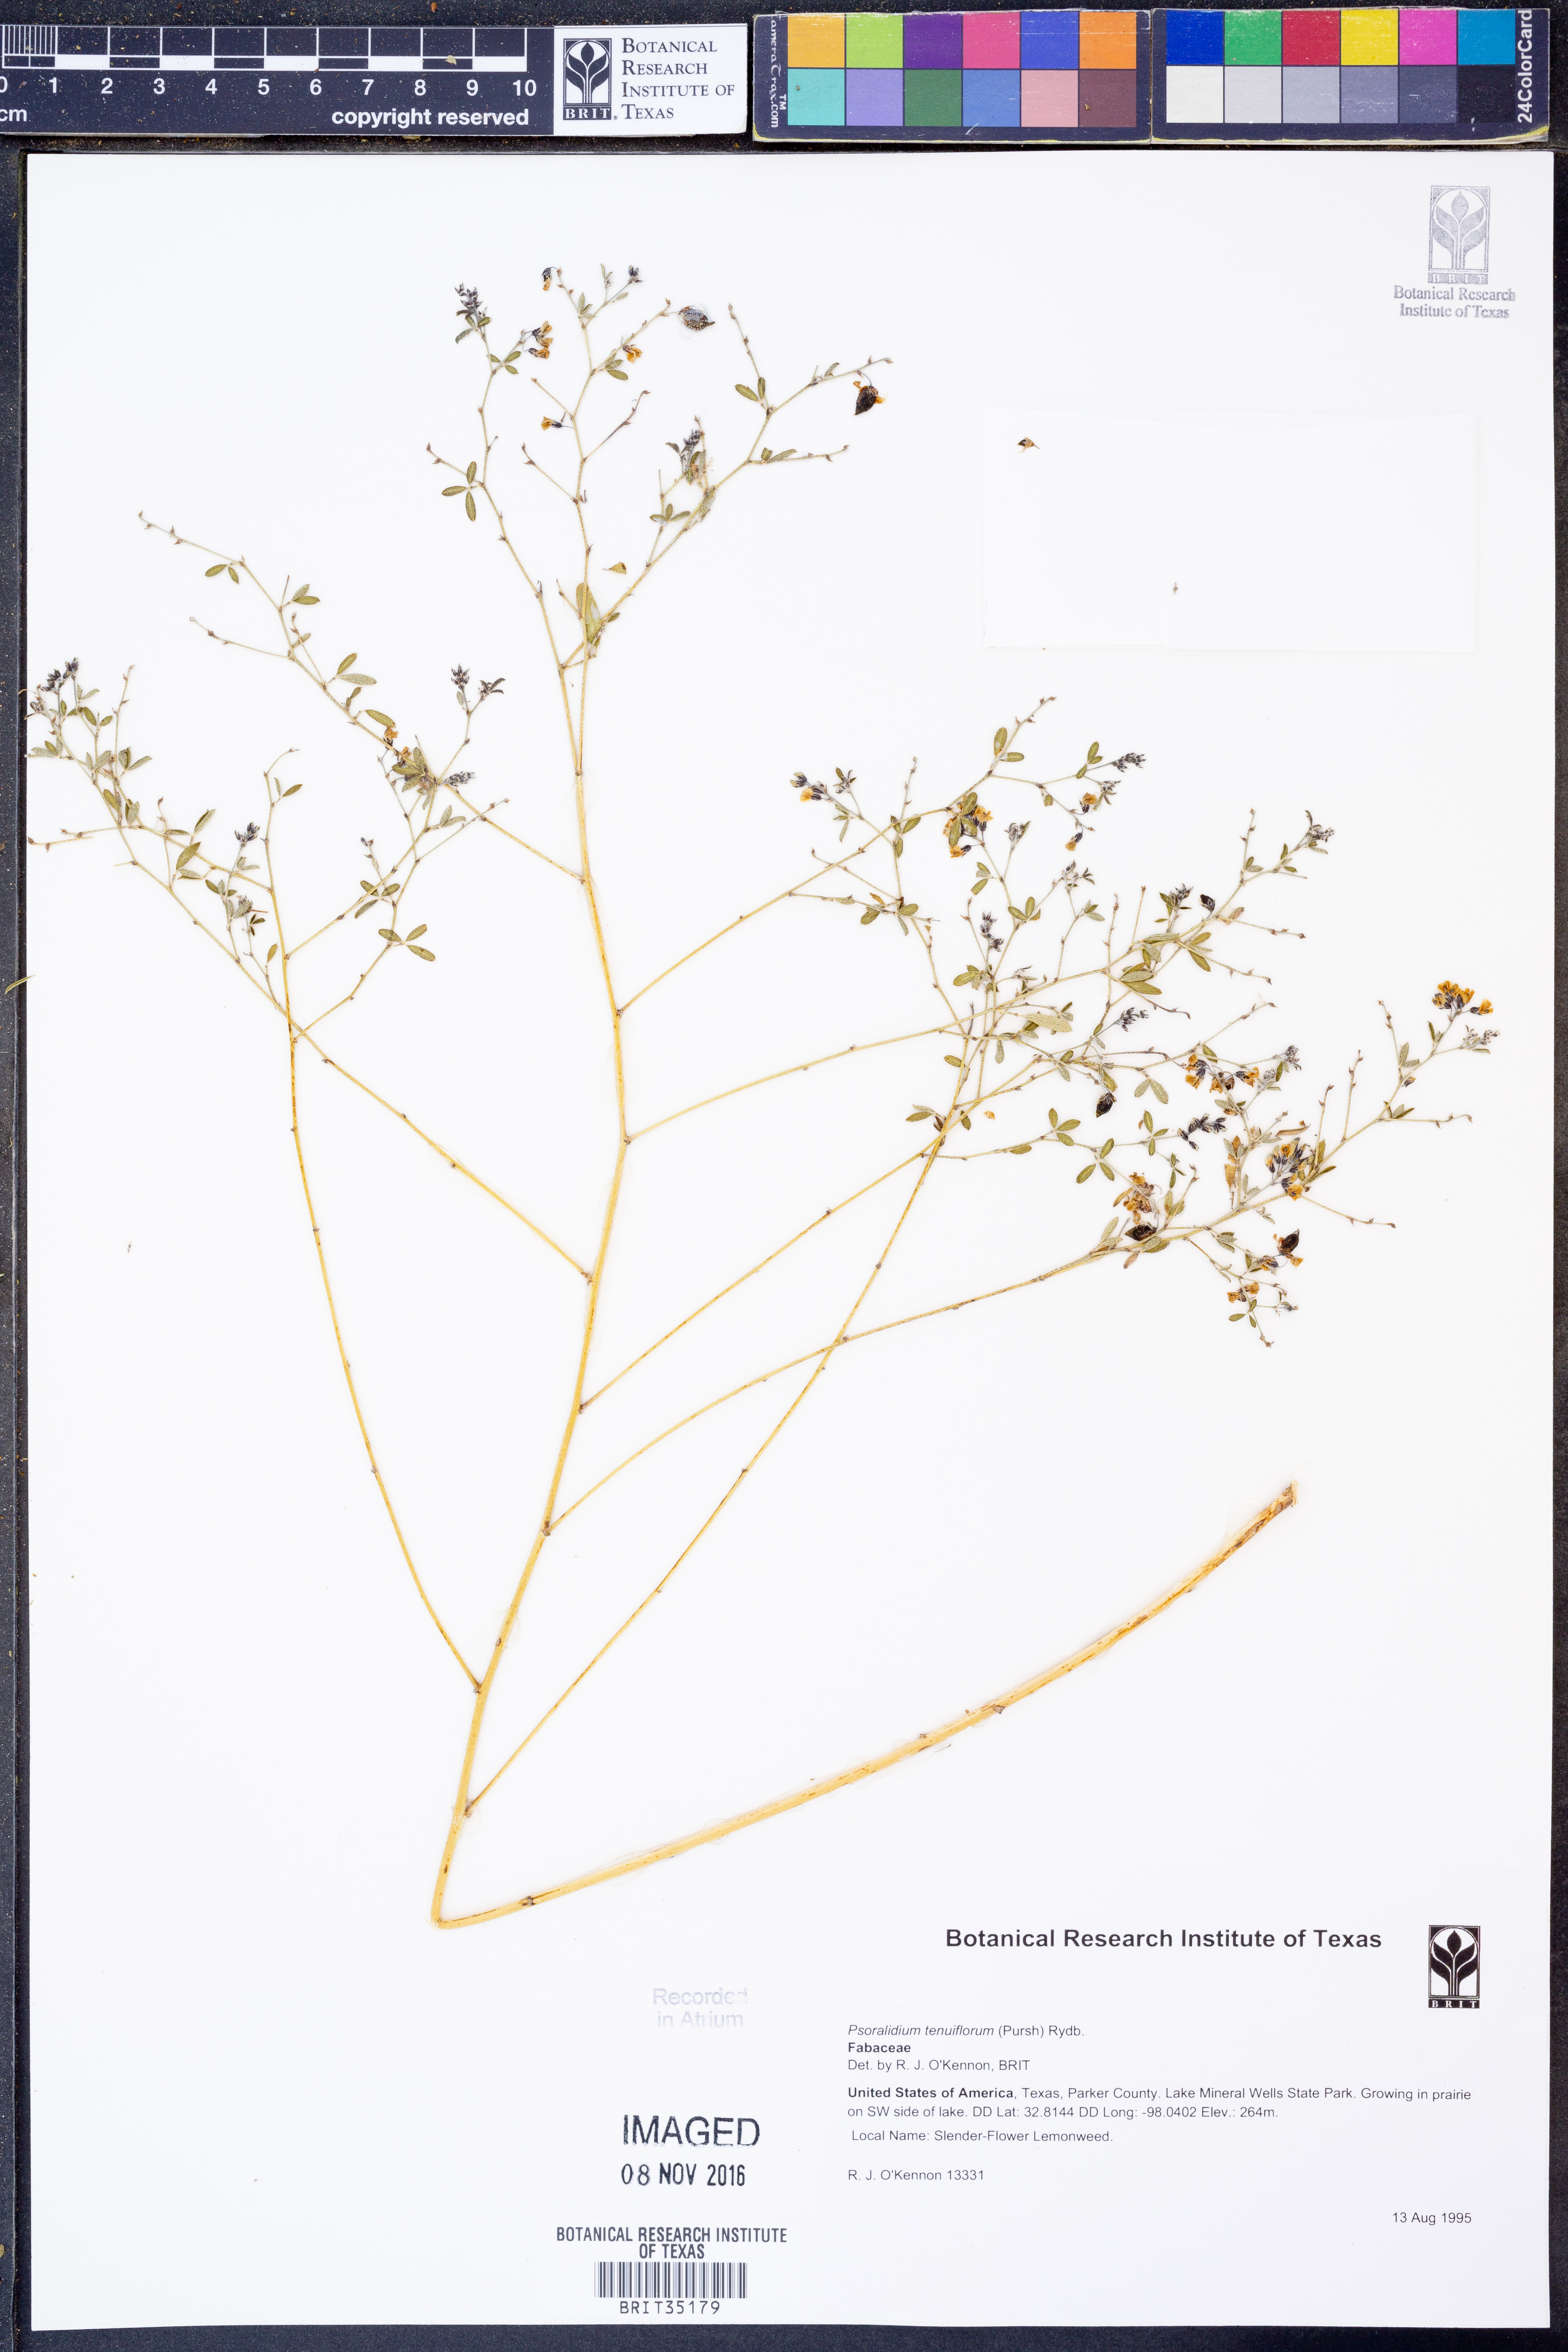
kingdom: Plantae
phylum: Tracheophyta
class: Magnoliopsida
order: Fabales
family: Fabaceae
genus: Pediomelum
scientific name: Pediomelum tenuiflorum
